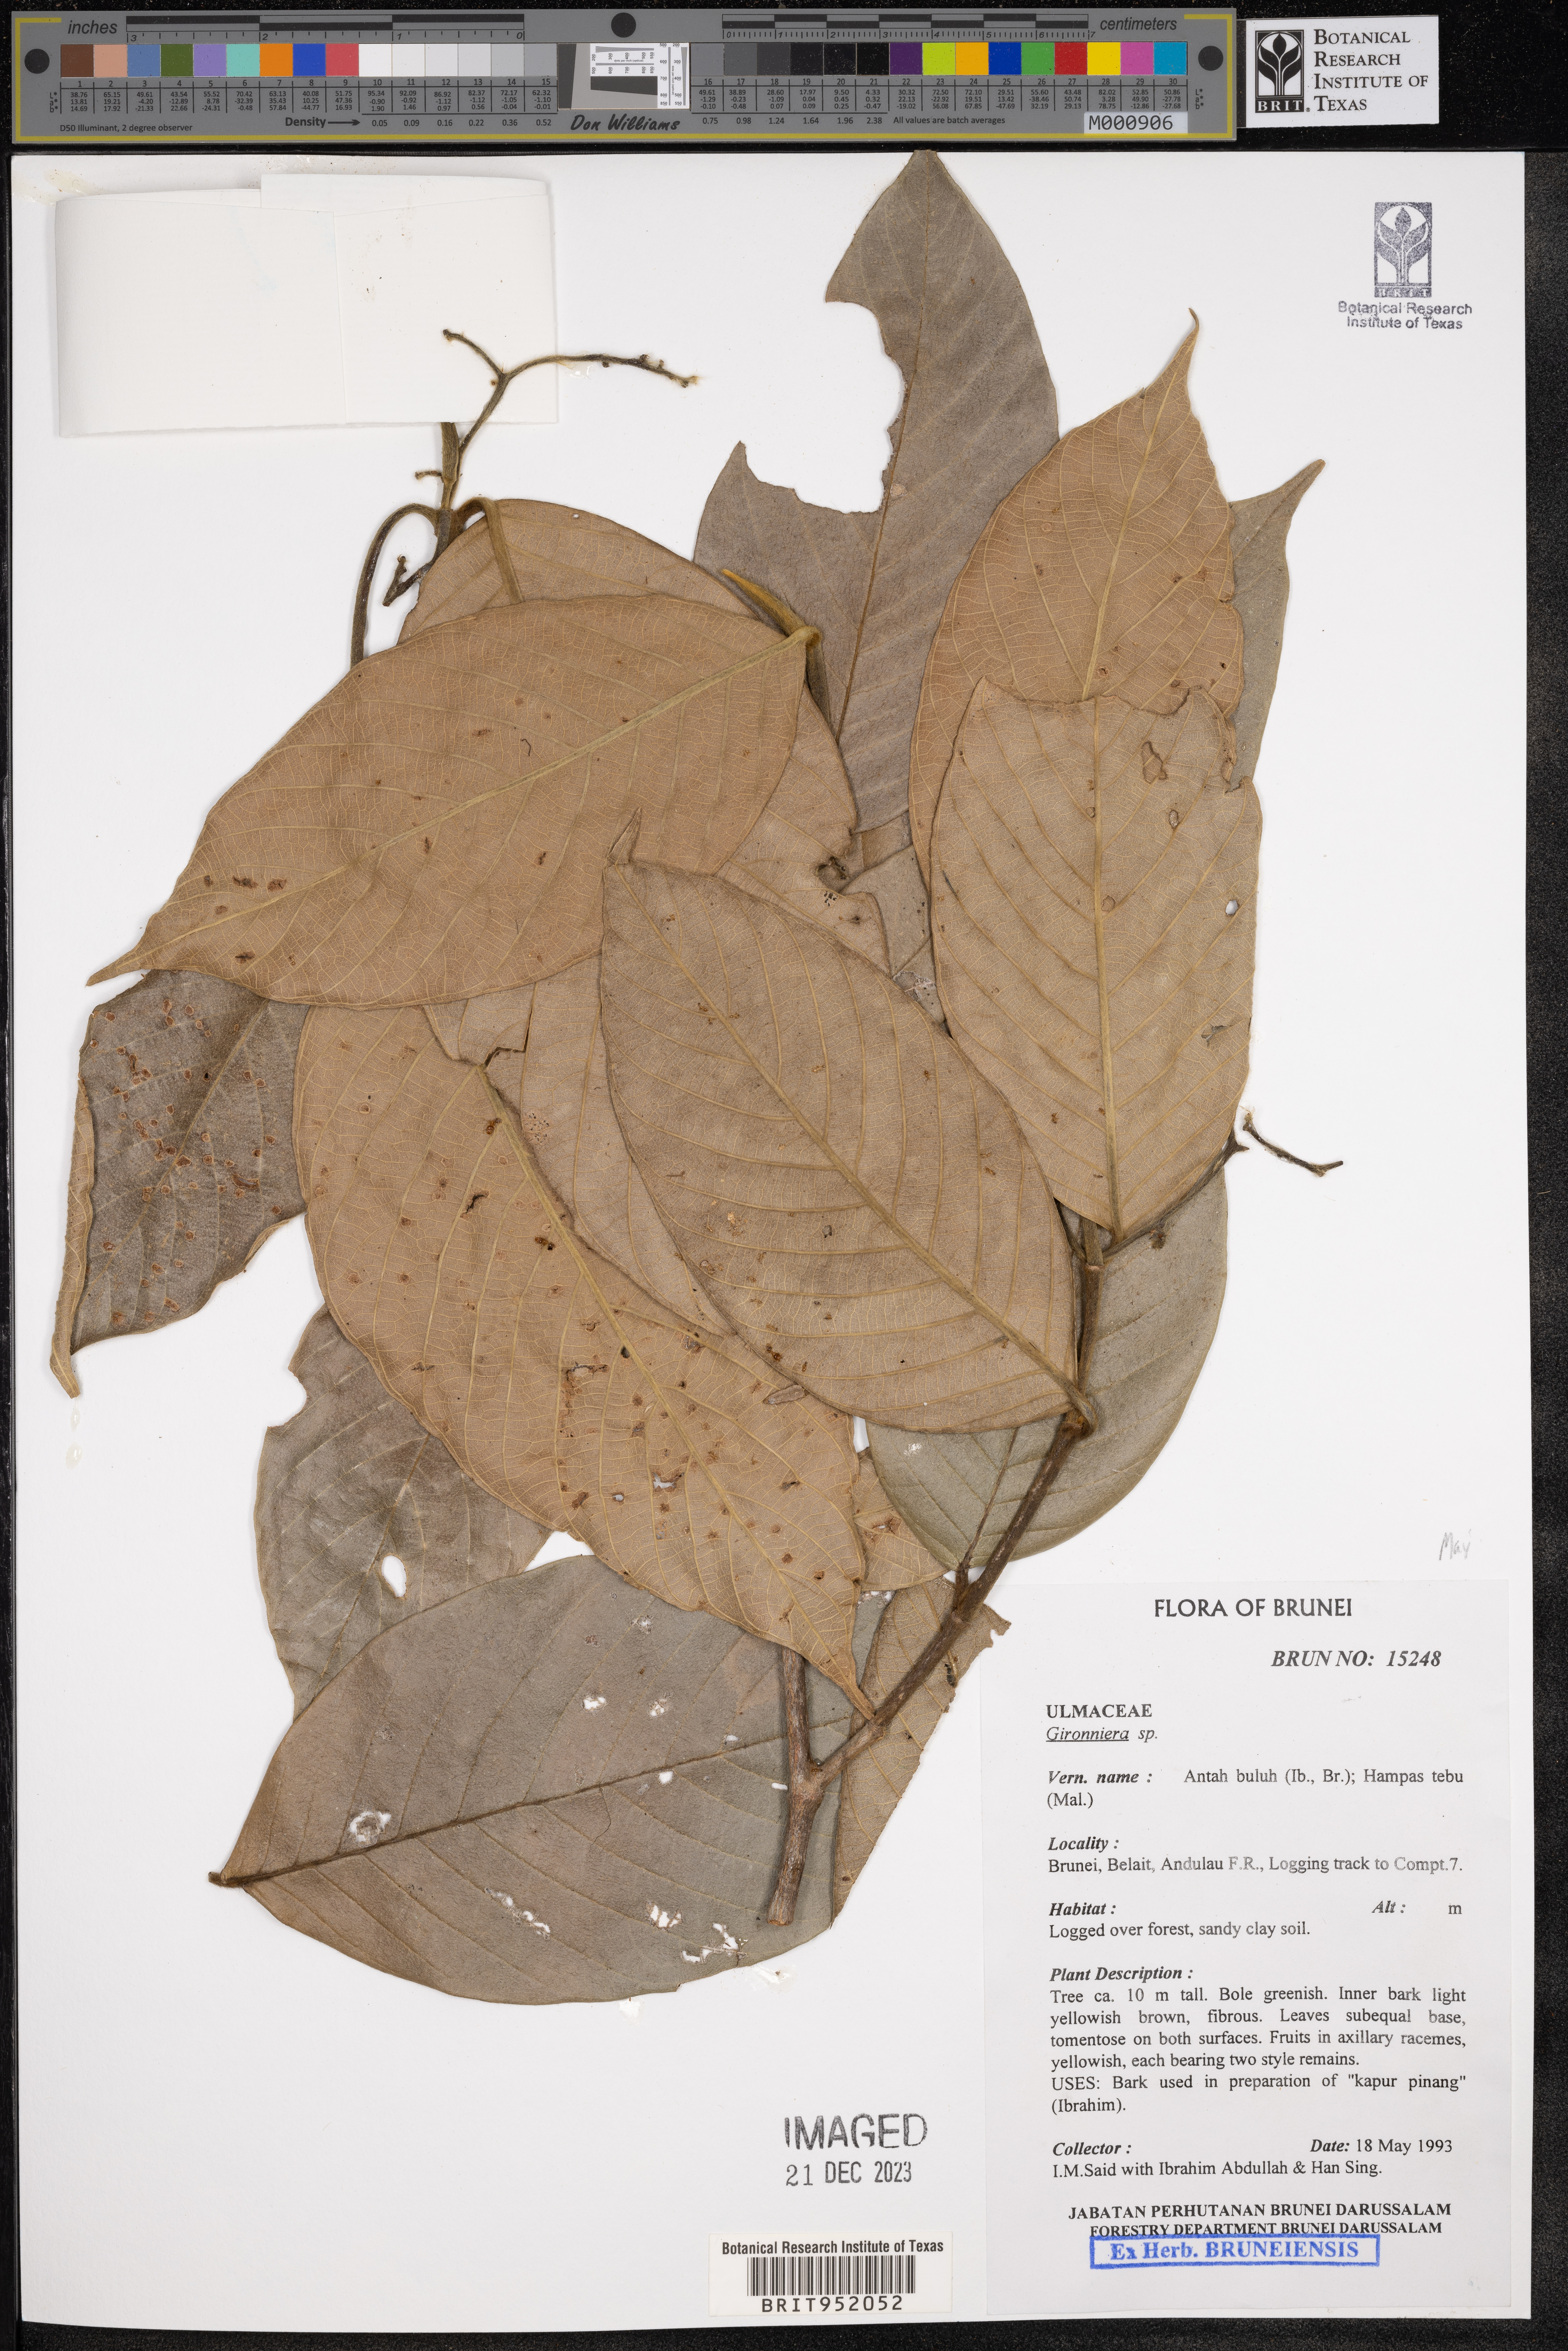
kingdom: Plantae
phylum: Tracheophyta
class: Magnoliopsida
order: Rosales
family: Cannabaceae
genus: Gironniera
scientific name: Gironniera
